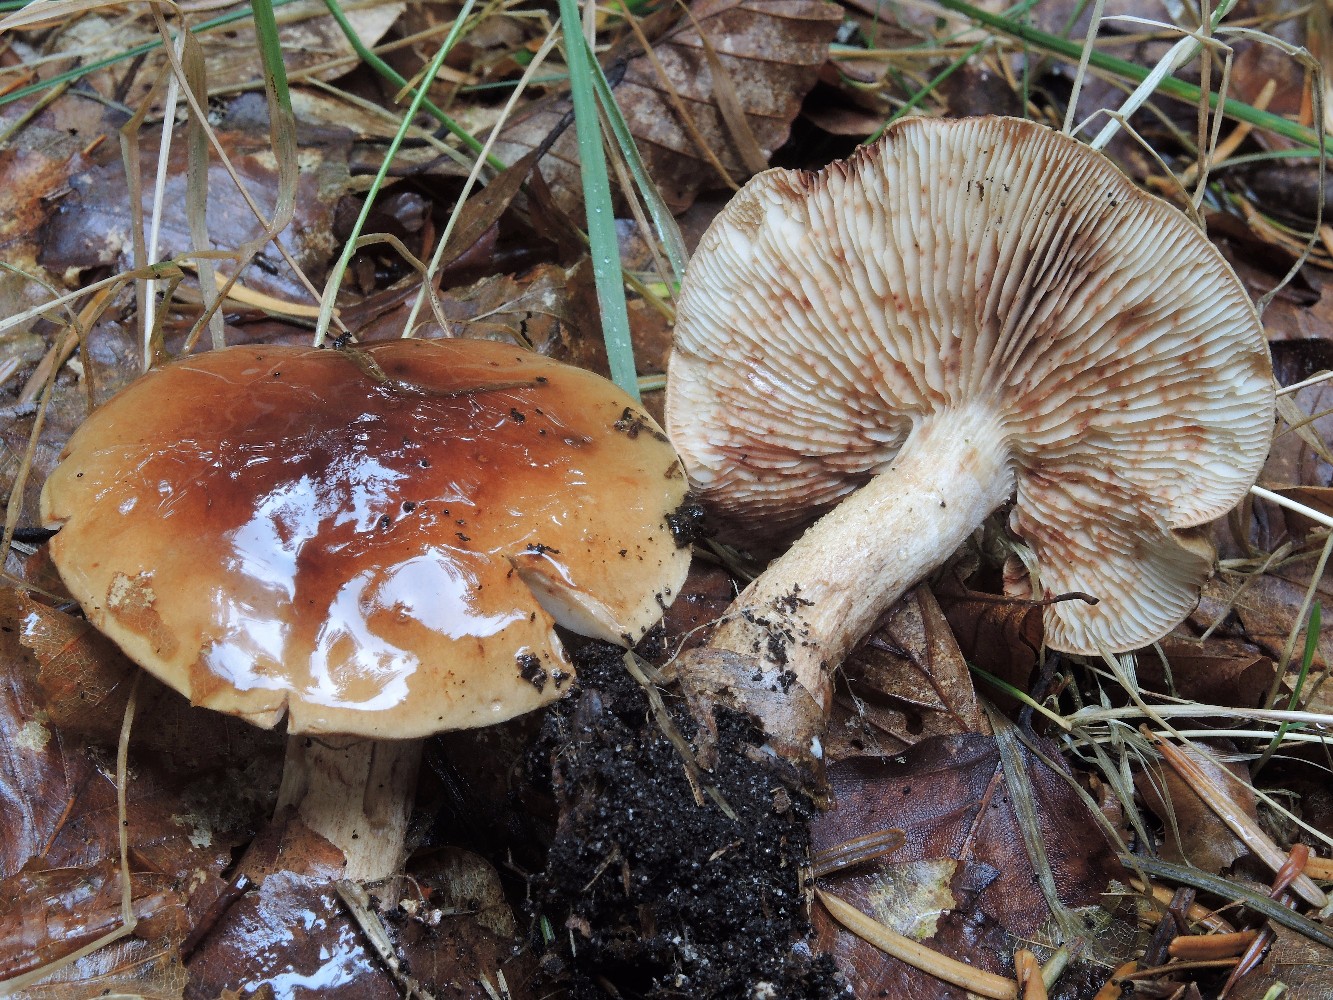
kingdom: Fungi
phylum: Basidiomycota
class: Agaricomycetes
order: Agaricales
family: Tricholomataceae
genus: Tricholoma
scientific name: Tricholoma ustale
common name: sveden ridderhat
